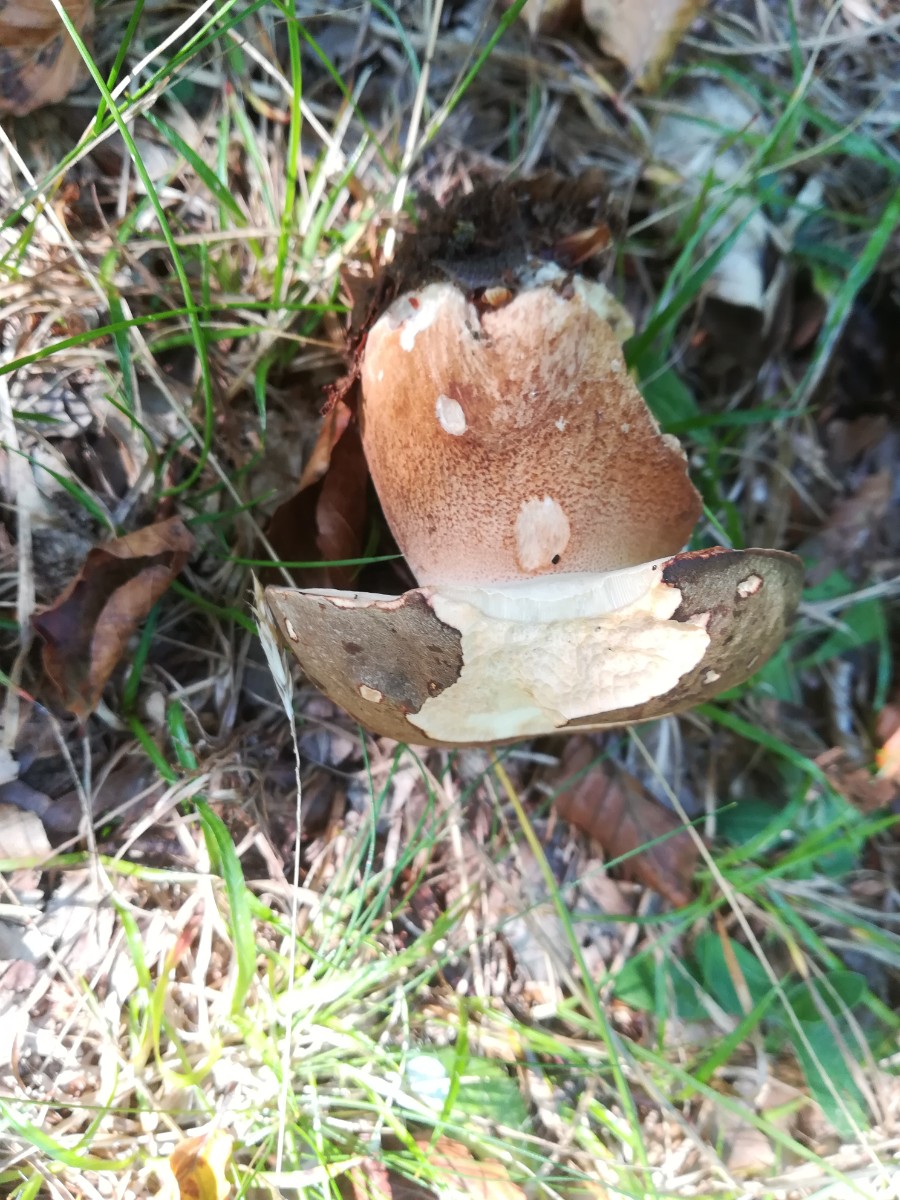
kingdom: Fungi
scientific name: Fungi
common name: bronze-rørhat
